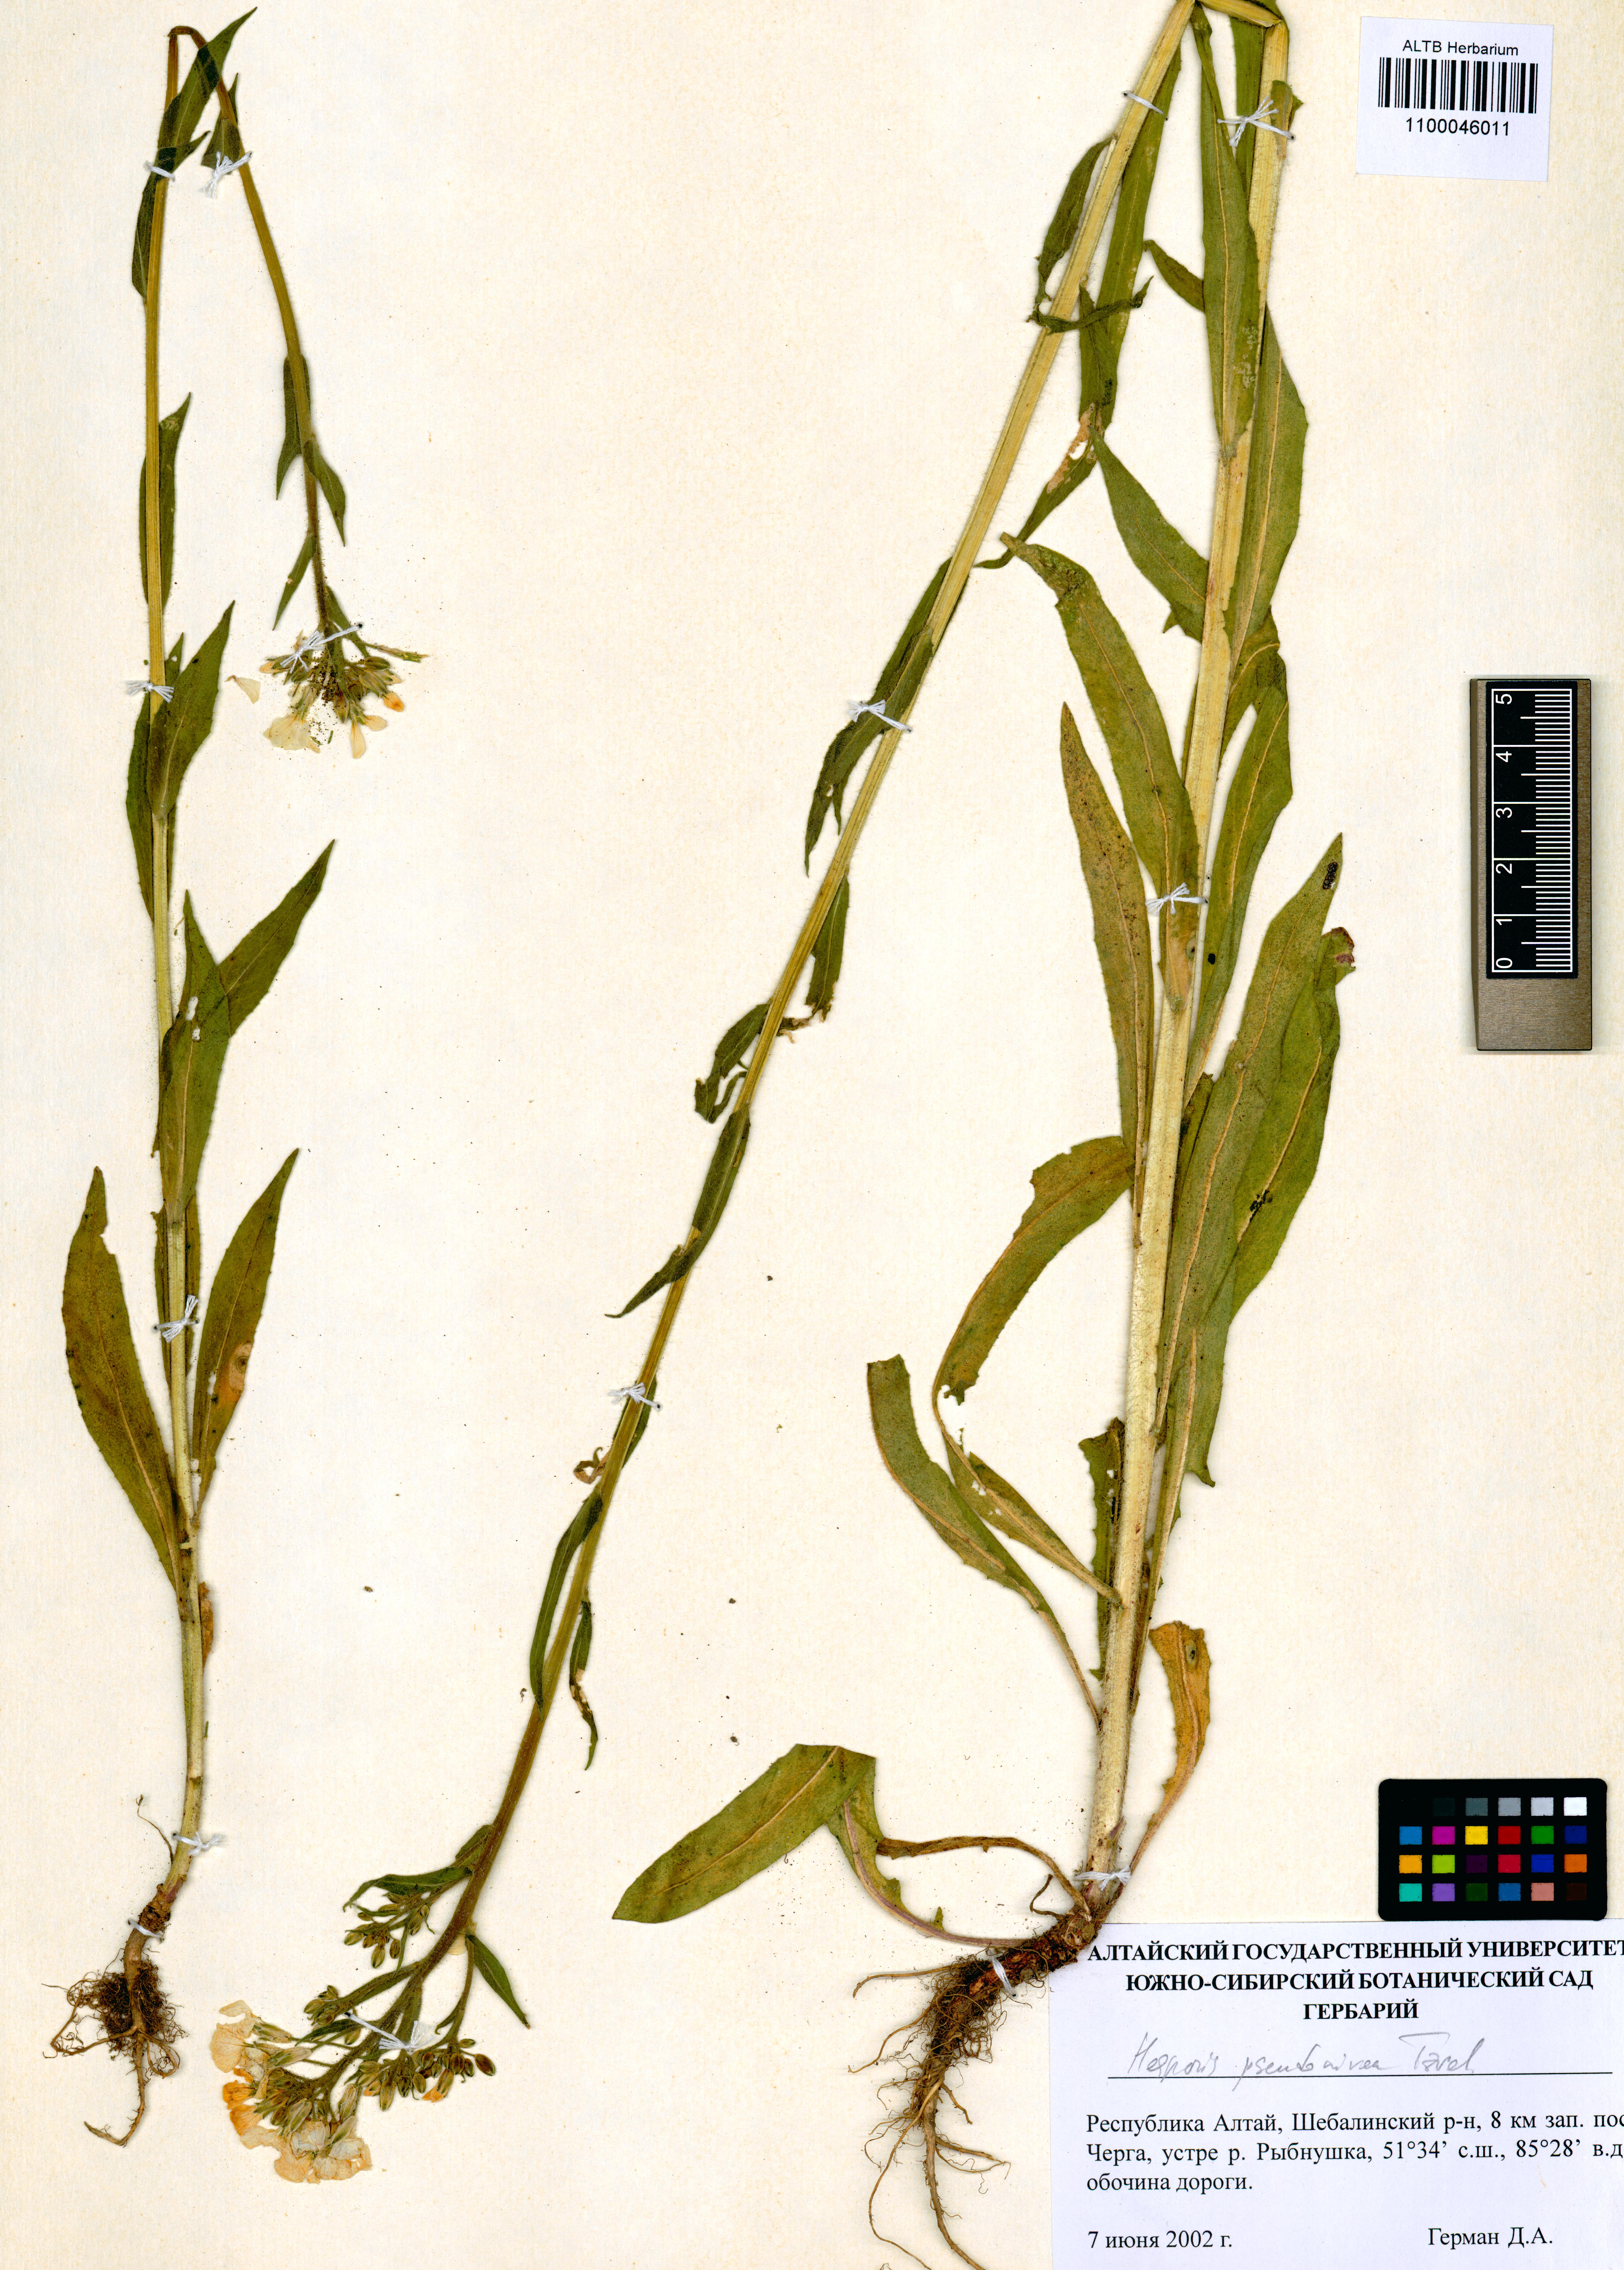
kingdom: Plantae
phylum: Tracheophyta
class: Magnoliopsida
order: Brassicales
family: Brassicaceae
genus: Hesperis
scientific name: Hesperis sibirica
